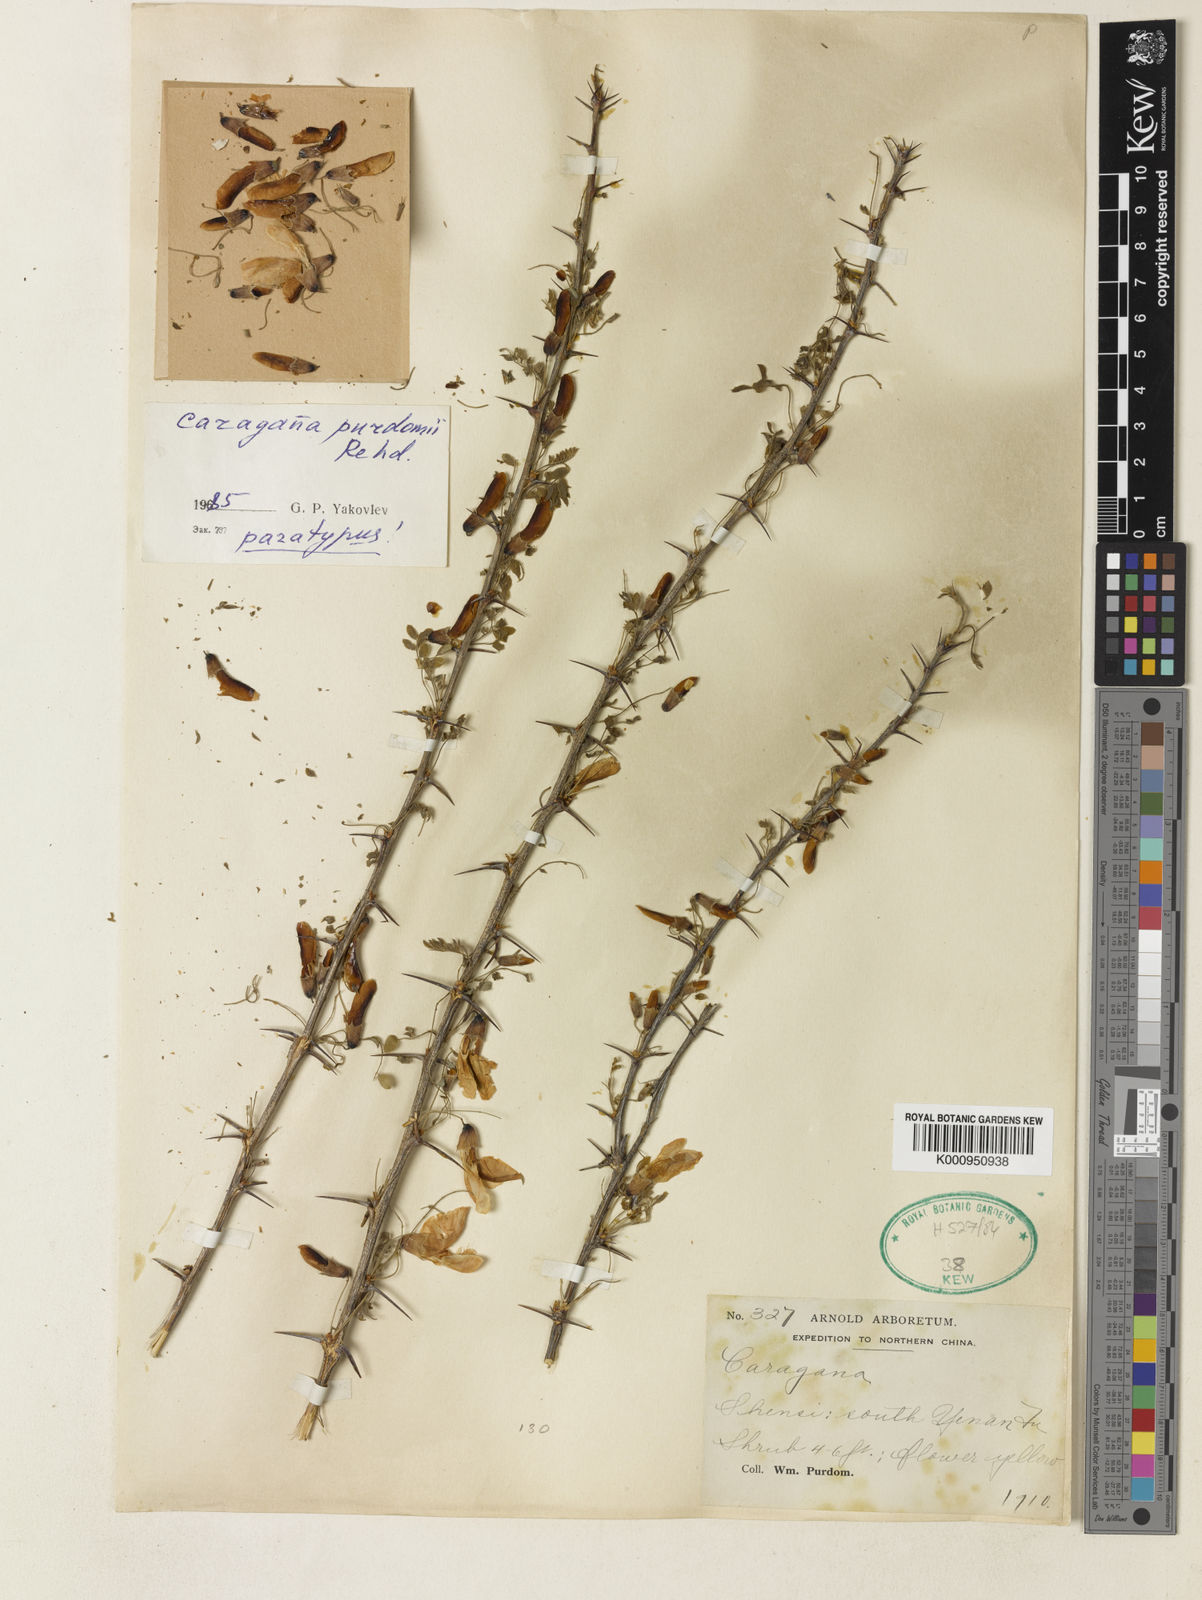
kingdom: Plantae
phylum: Tracheophyta
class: Magnoliopsida
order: Fabales
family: Fabaceae
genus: Caragana
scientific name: Caragana purdomii
